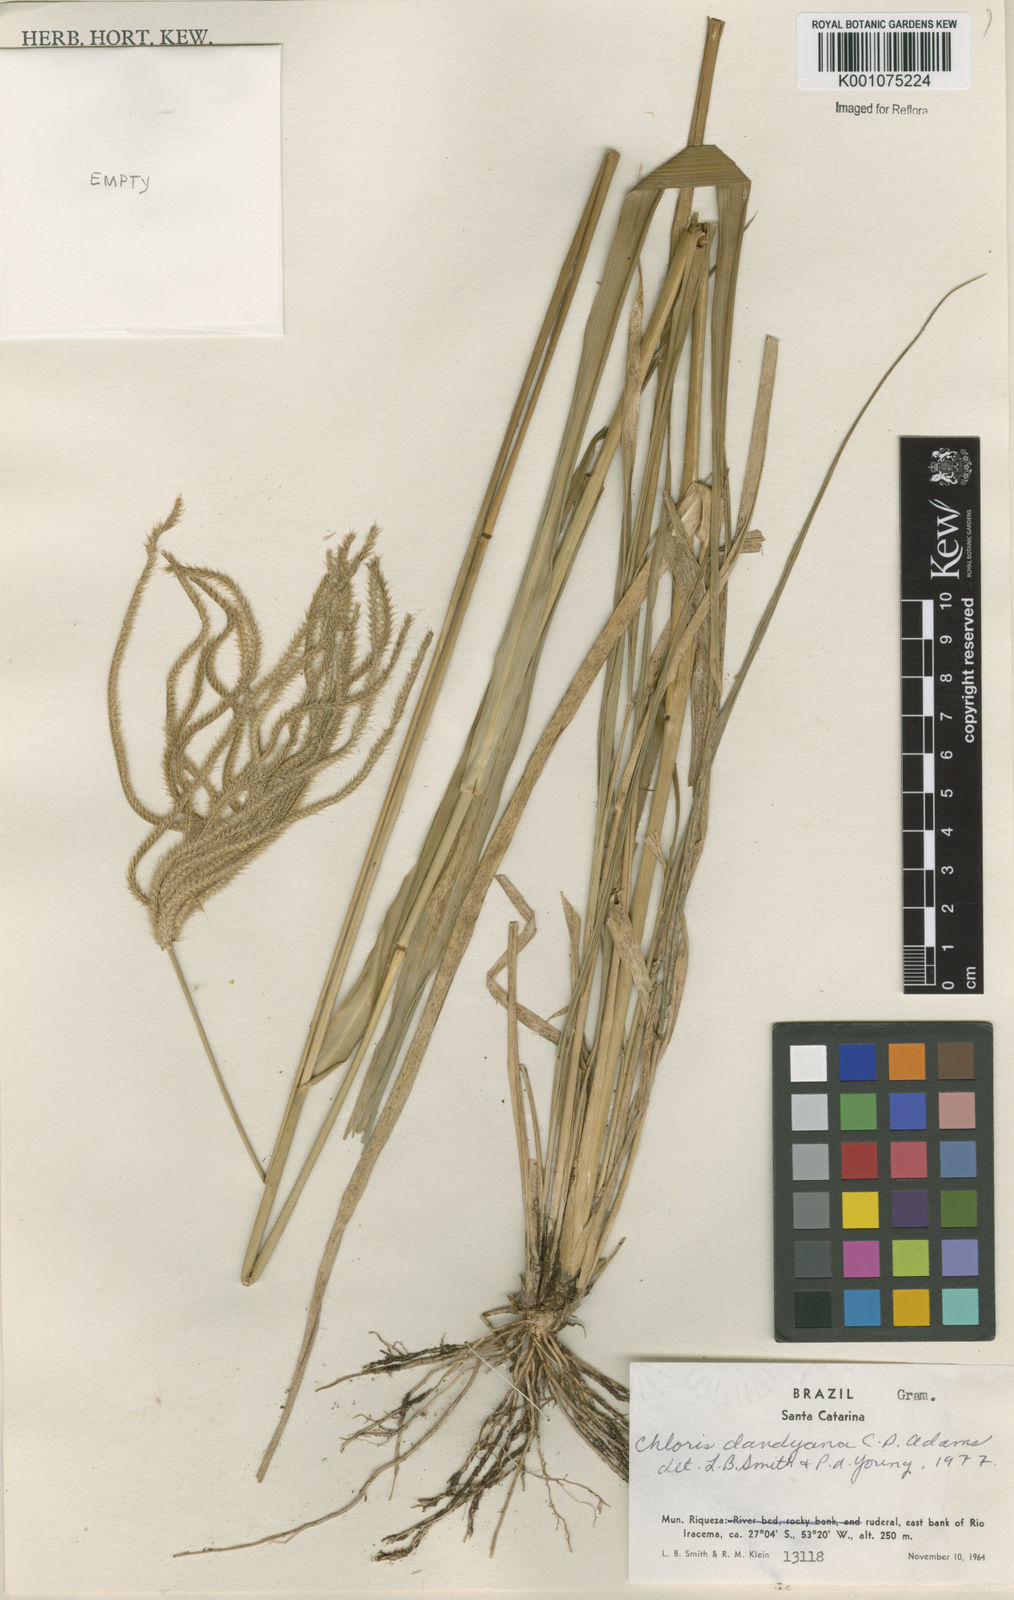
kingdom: Plantae
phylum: Tracheophyta
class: Liliopsida
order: Poales
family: Poaceae
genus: Stapfochloa
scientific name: Stapfochloa elata
